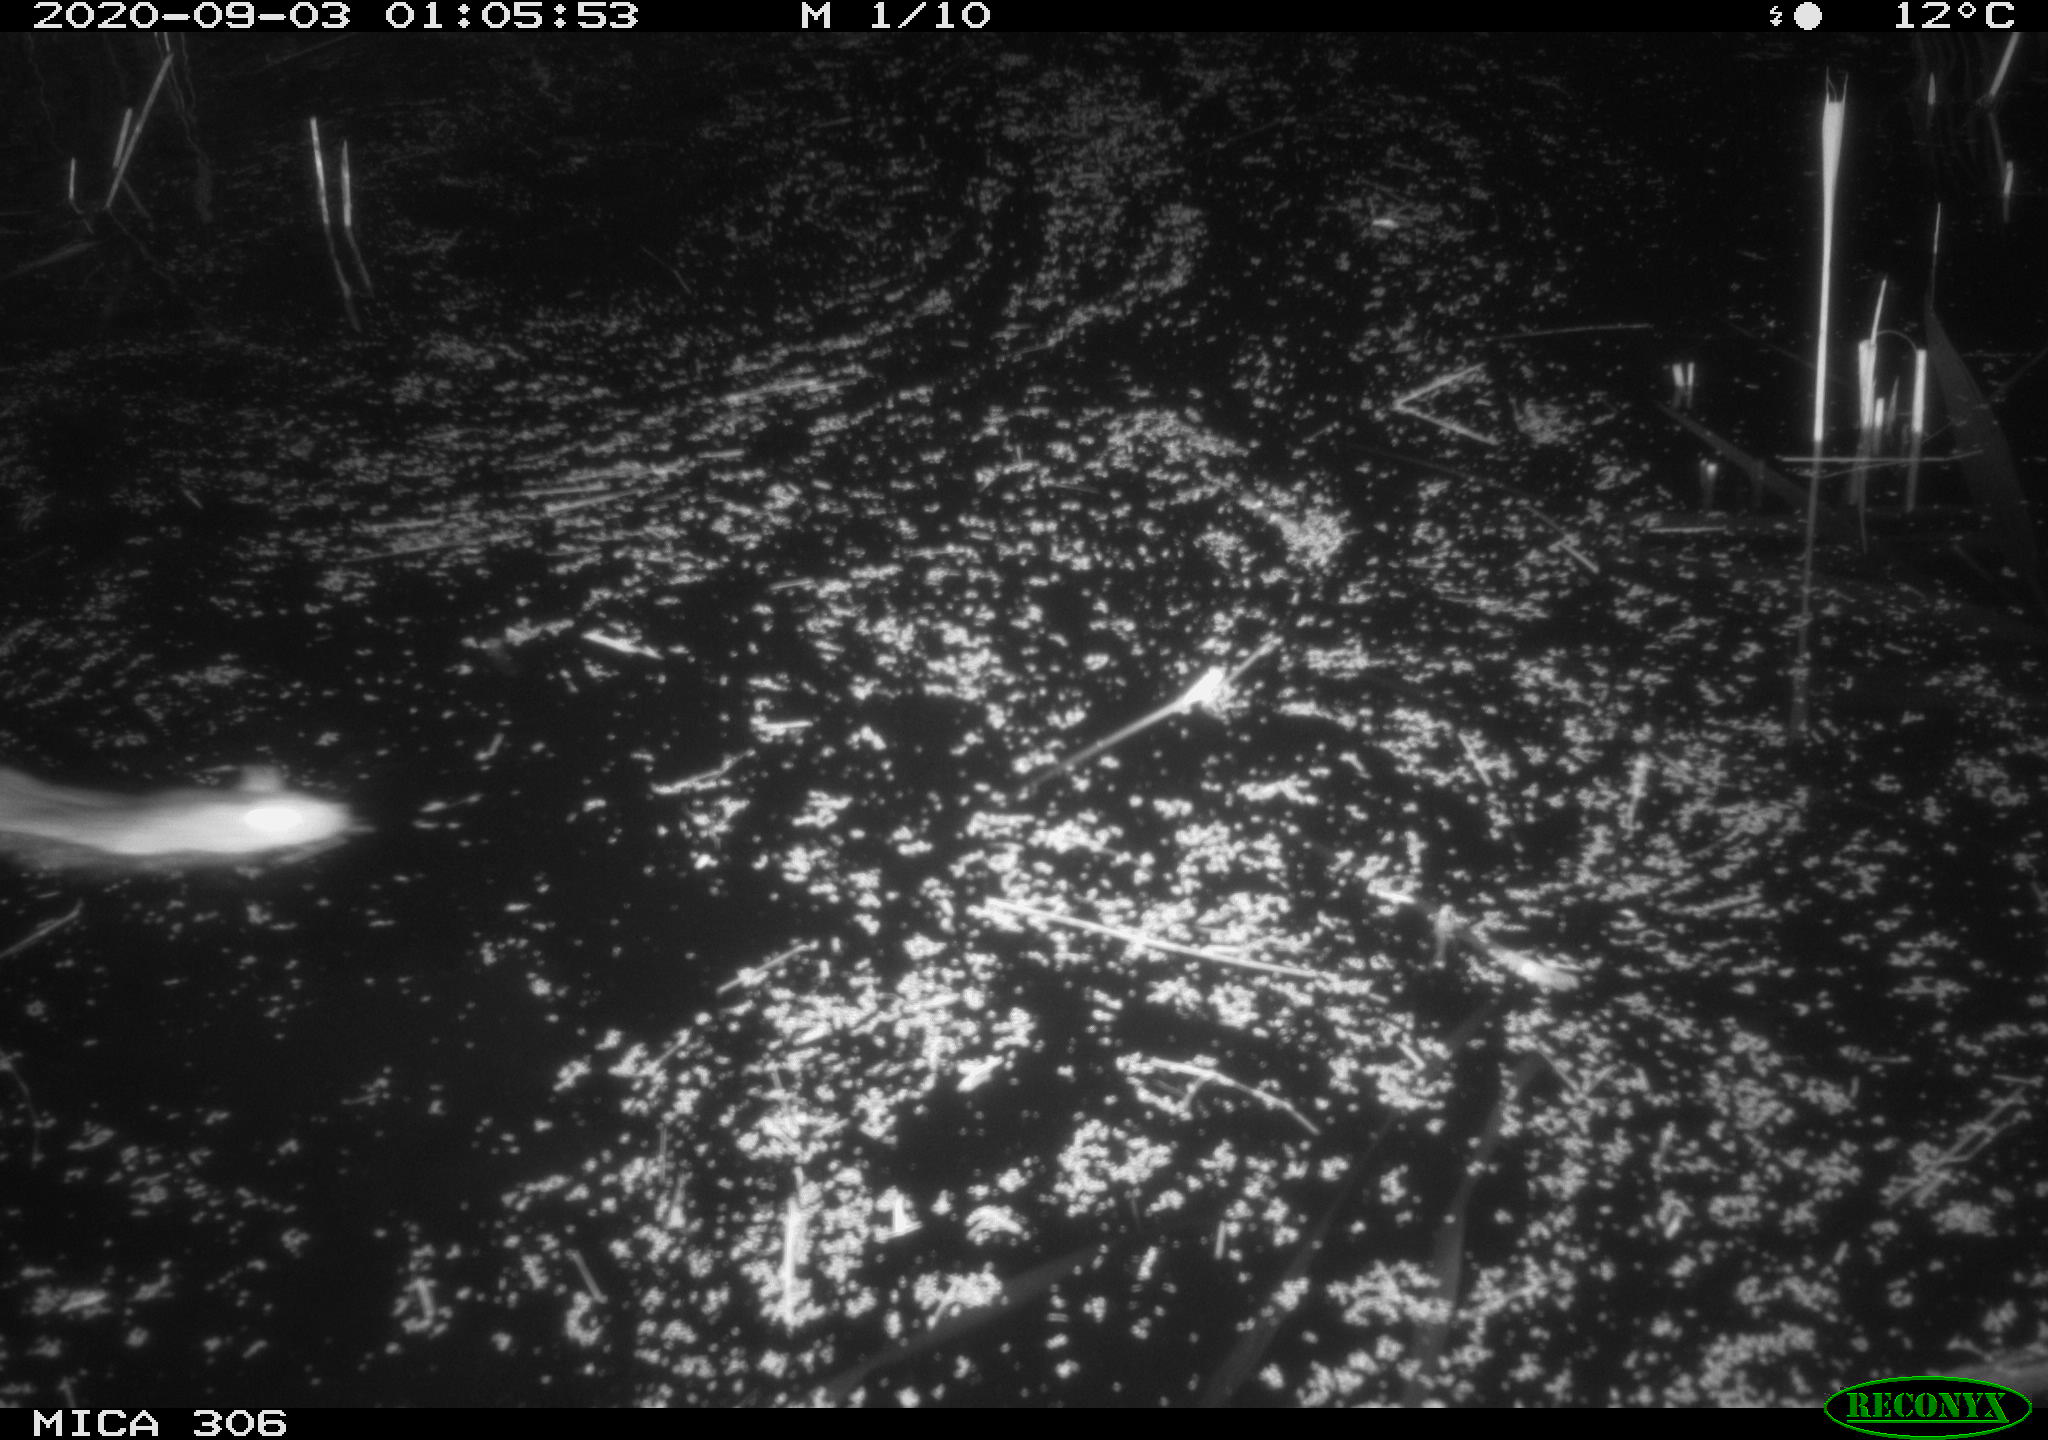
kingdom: Animalia
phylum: Chordata
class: Mammalia
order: Rodentia
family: Muridae
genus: Rattus
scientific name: Rattus norvegicus
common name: Brown rat
